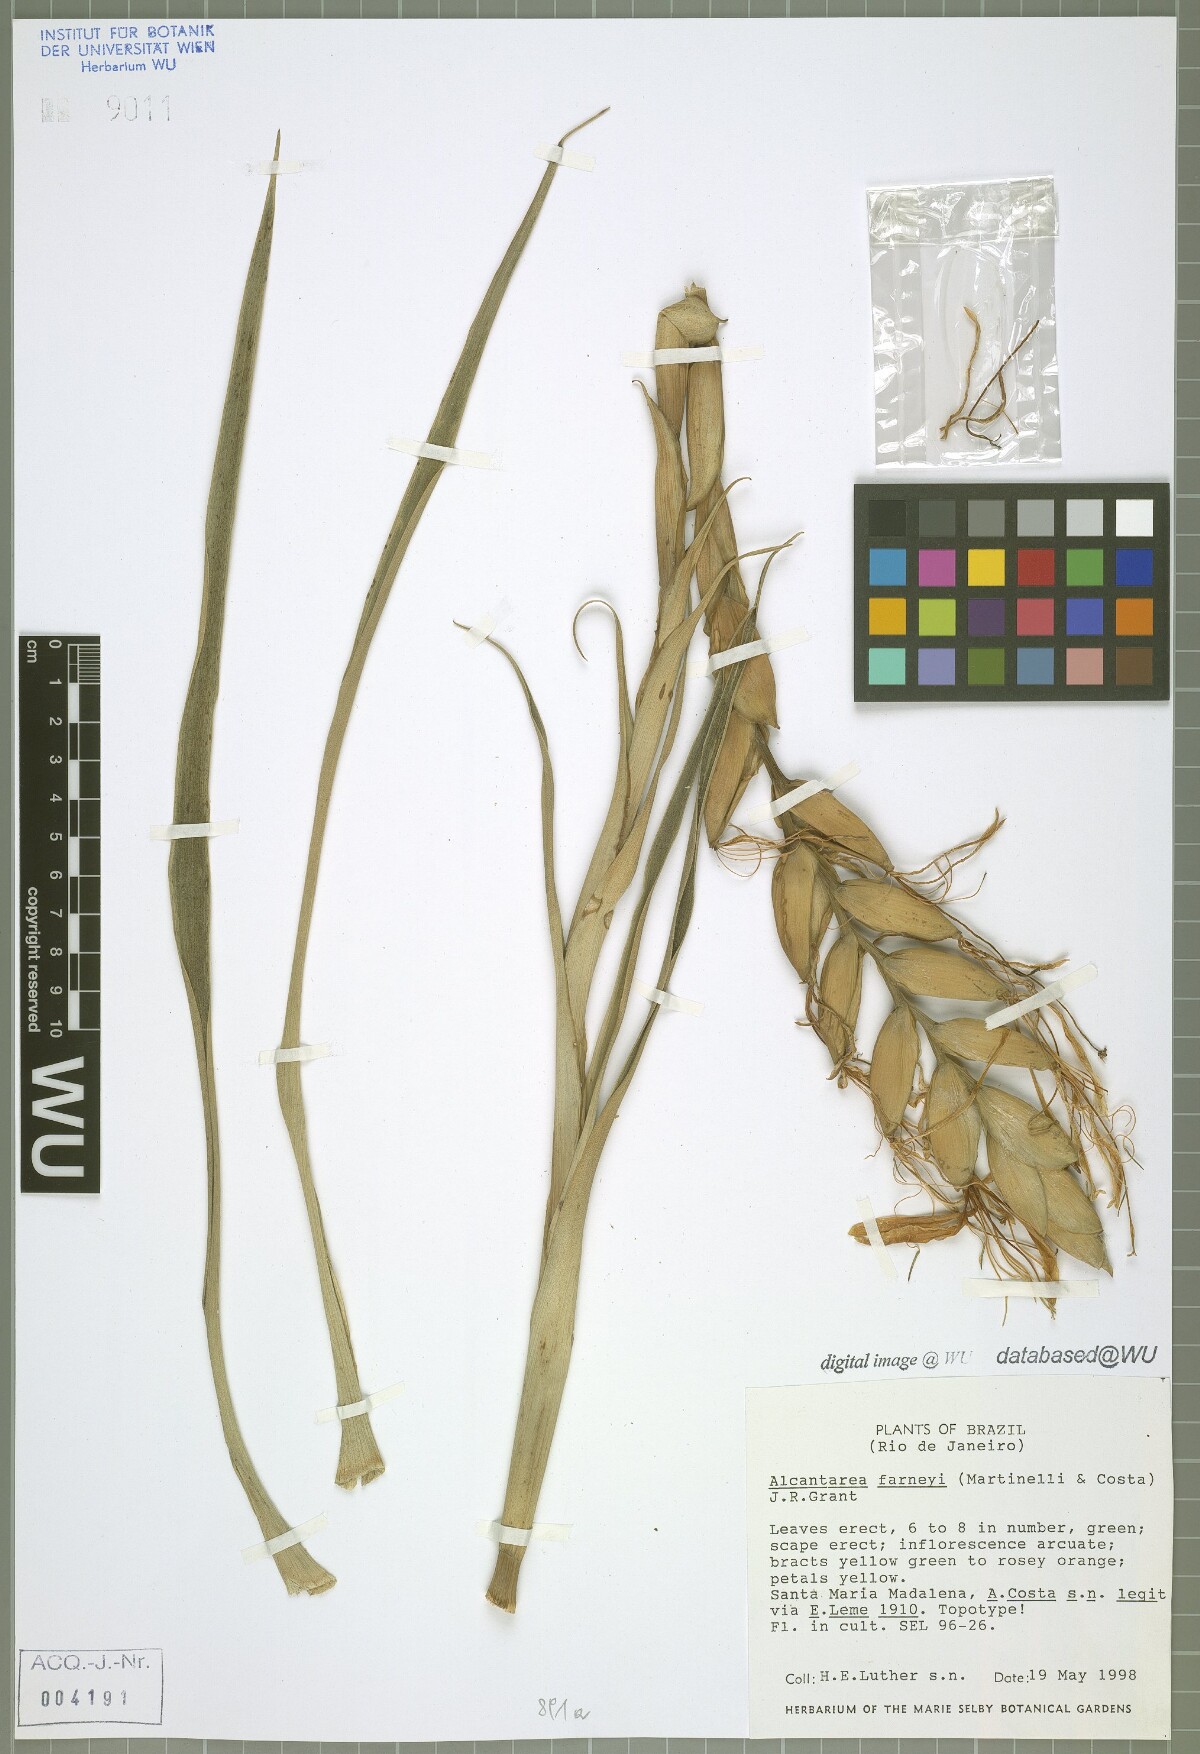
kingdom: Plantae
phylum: Tracheophyta
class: Liliopsida
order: Poales
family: Bromeliaceae
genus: Alcantarea
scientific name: Alcantarea farneyi
